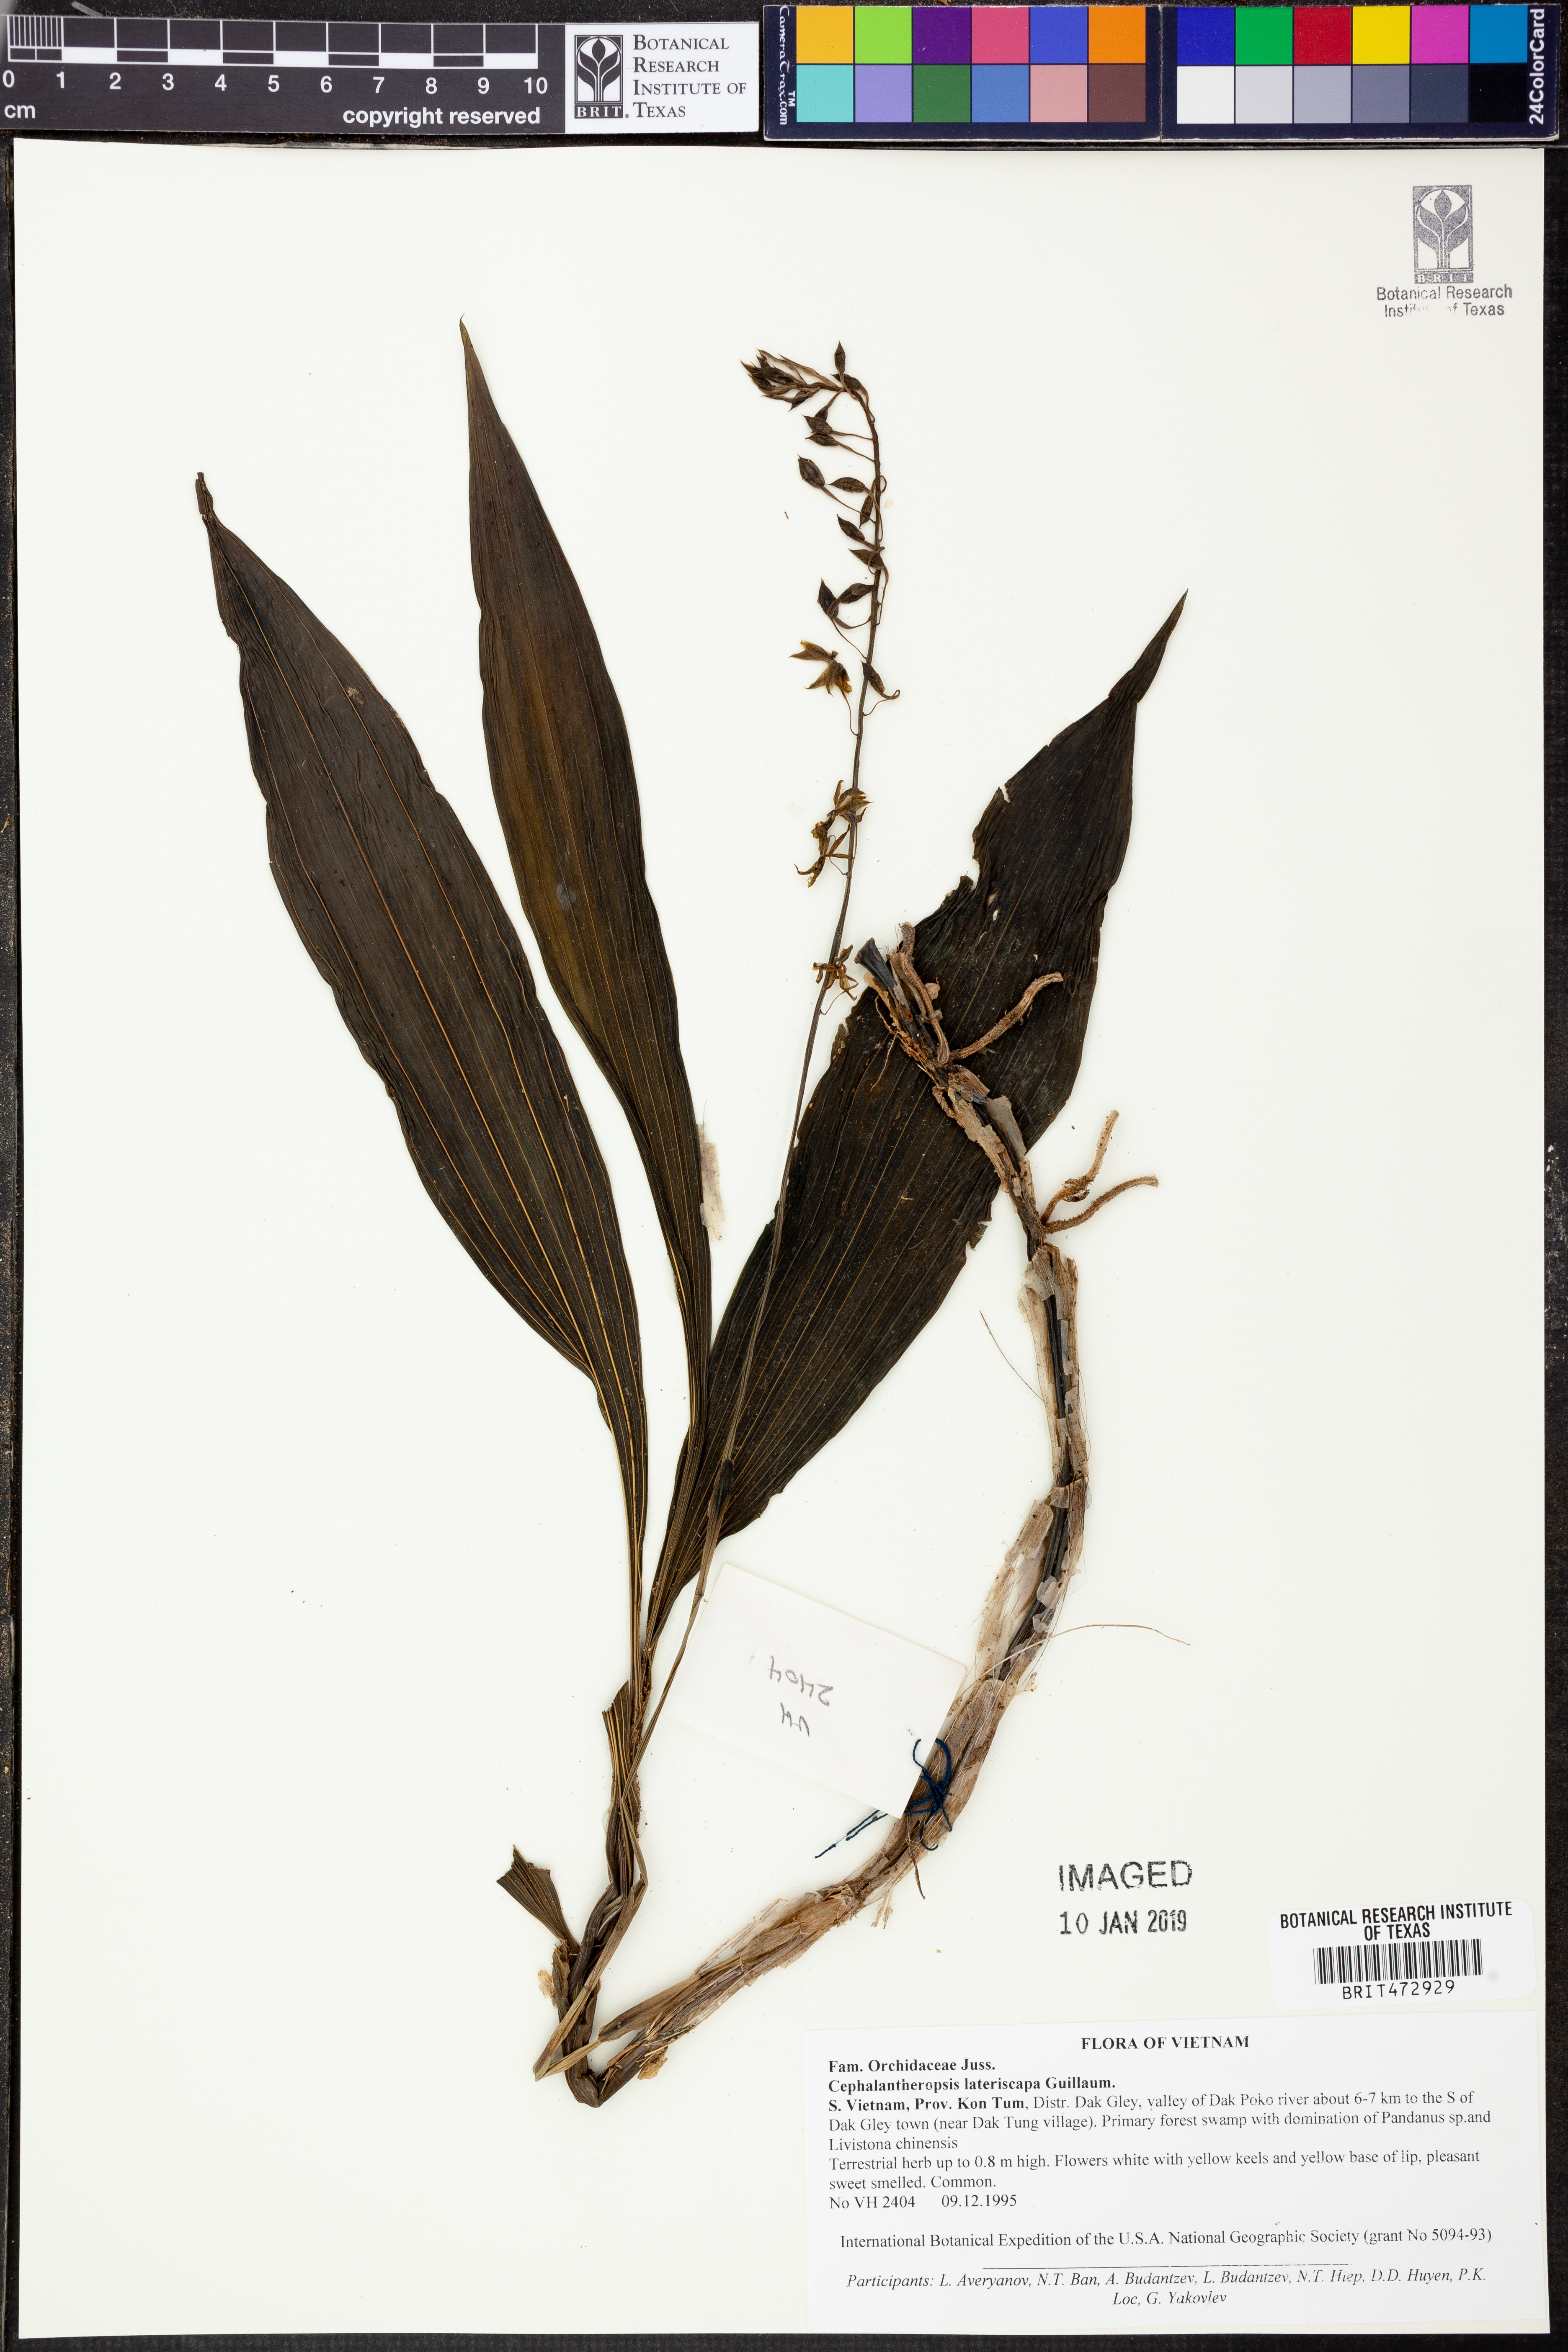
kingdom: Plantae
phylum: Tracheophyta
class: Liliopsida
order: Asparagales
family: Orchidaceae
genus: Calanthe
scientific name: Calanthe longipes
